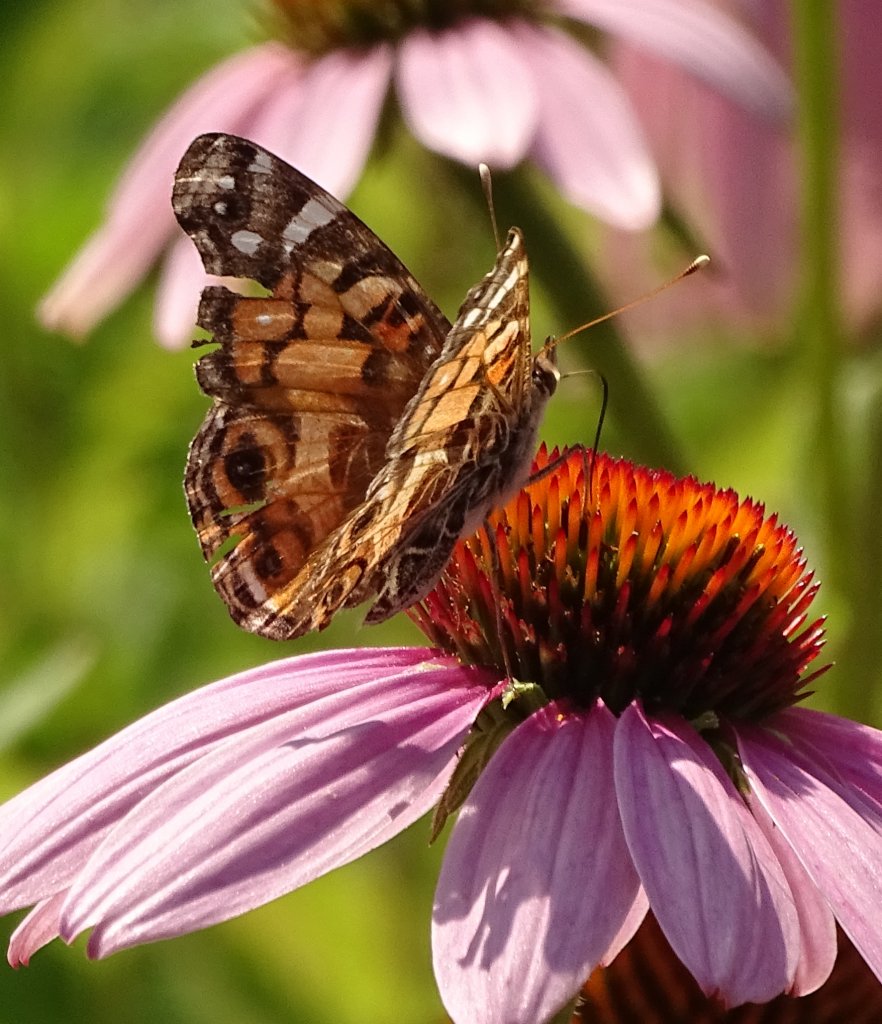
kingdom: Animalia
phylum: Arthropoda
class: Insecta
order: Lepidoptera
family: Nymphalidae
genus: Vanessa
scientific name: Vanessa virginiensis
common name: American Lady
